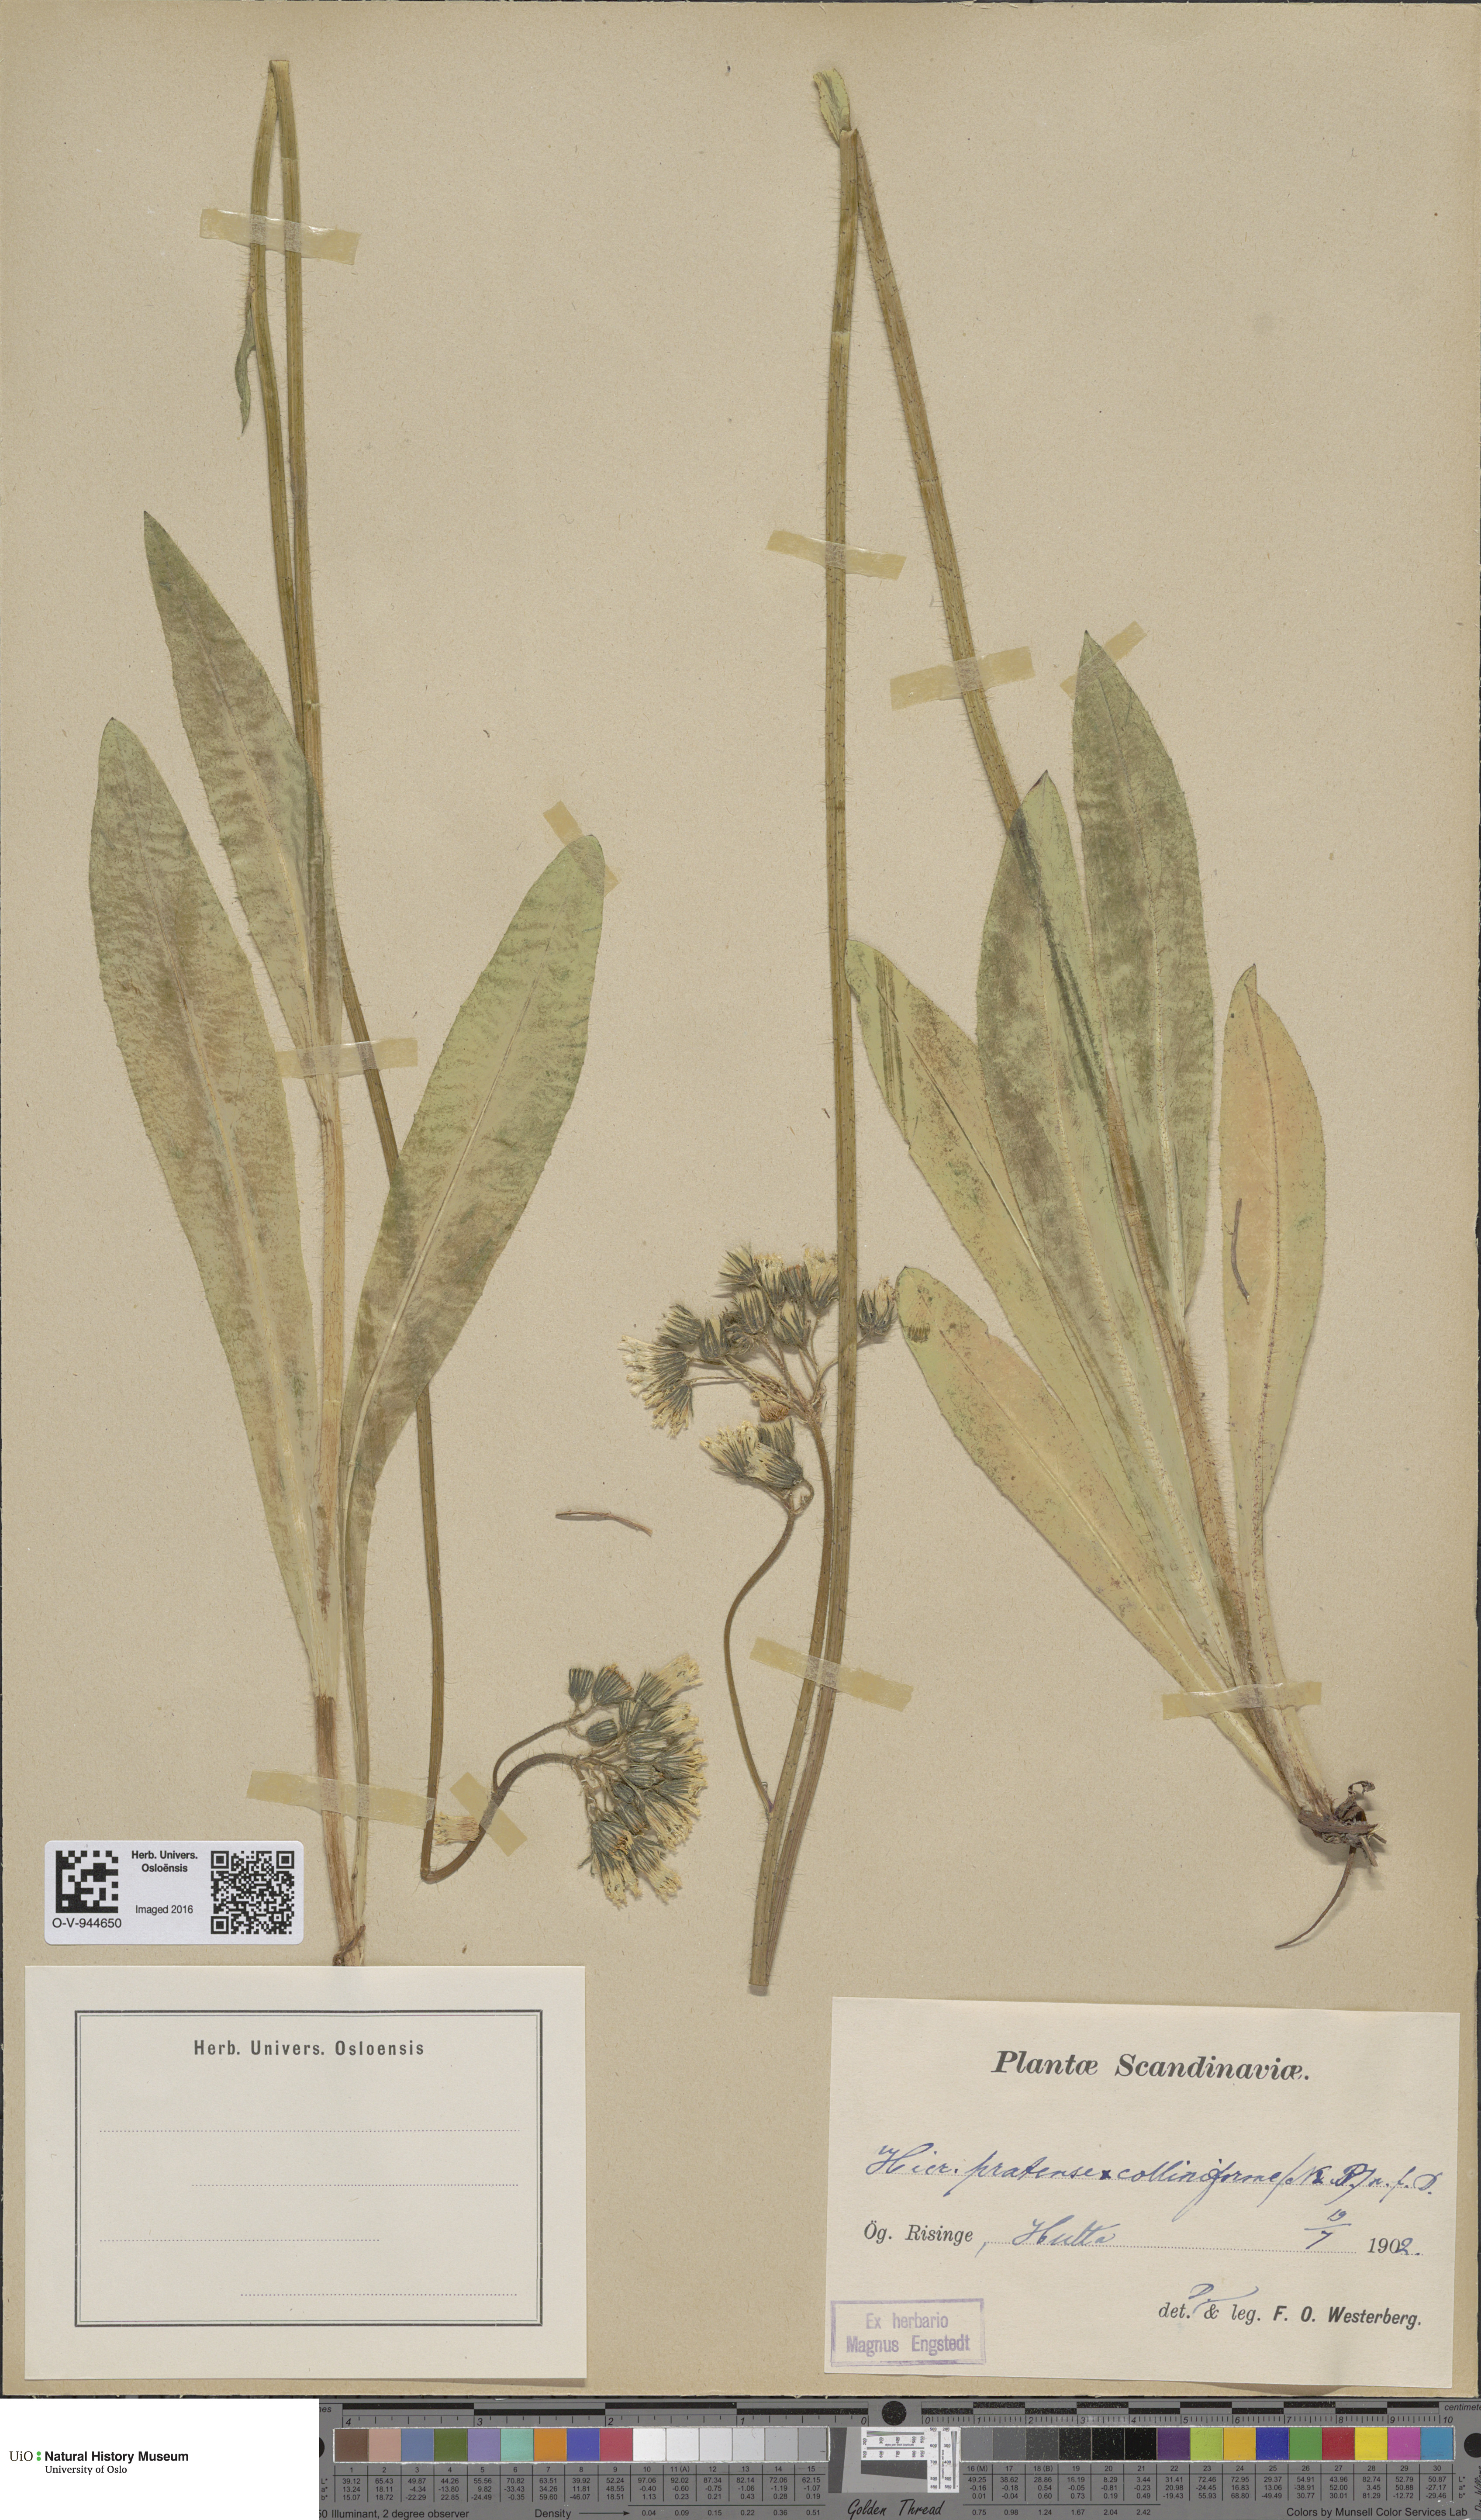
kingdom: Plantae
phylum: Tracheophyta
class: Magnoliopsida
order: Asterales
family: Asteraceae
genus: Pilosella
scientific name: Pilosella caespitosa
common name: Yellow fox-and-cubs
